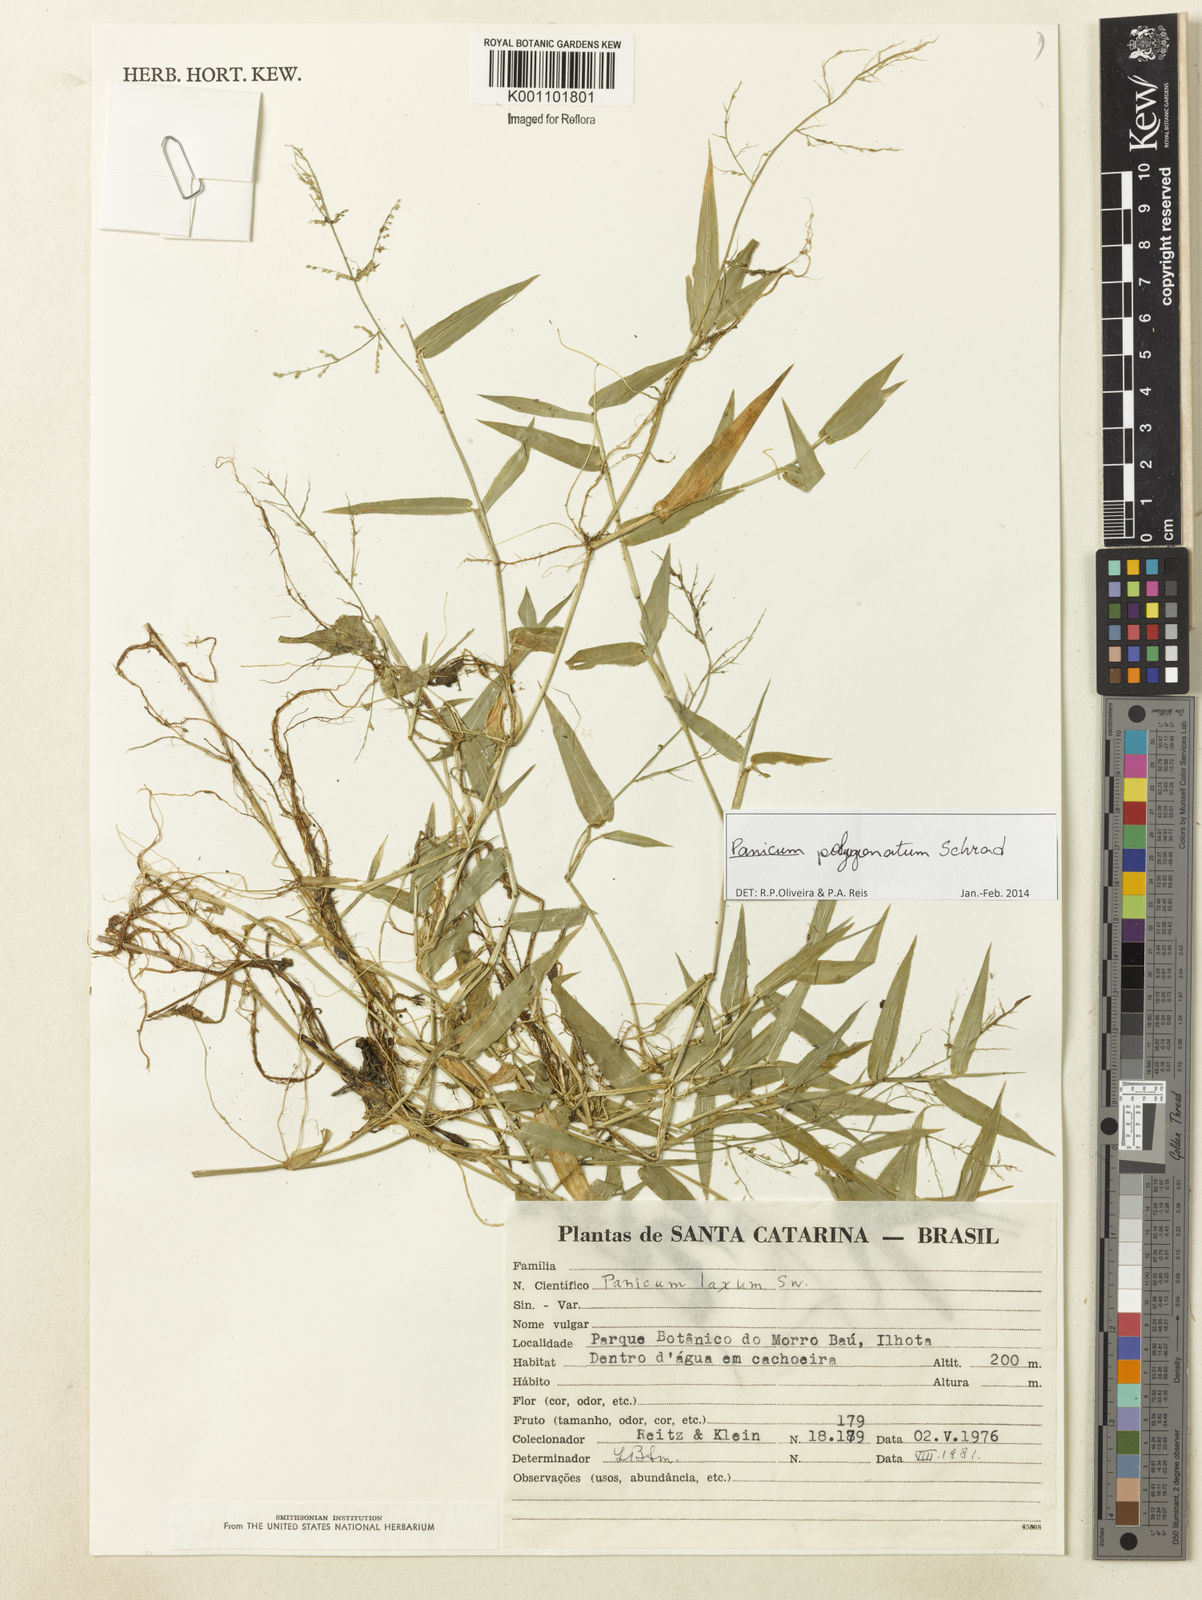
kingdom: Plantae
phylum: Tracheophyta
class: Liliopsida
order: Poales
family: Poaceae
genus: Rugoloa
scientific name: Rugoloa polygonata
